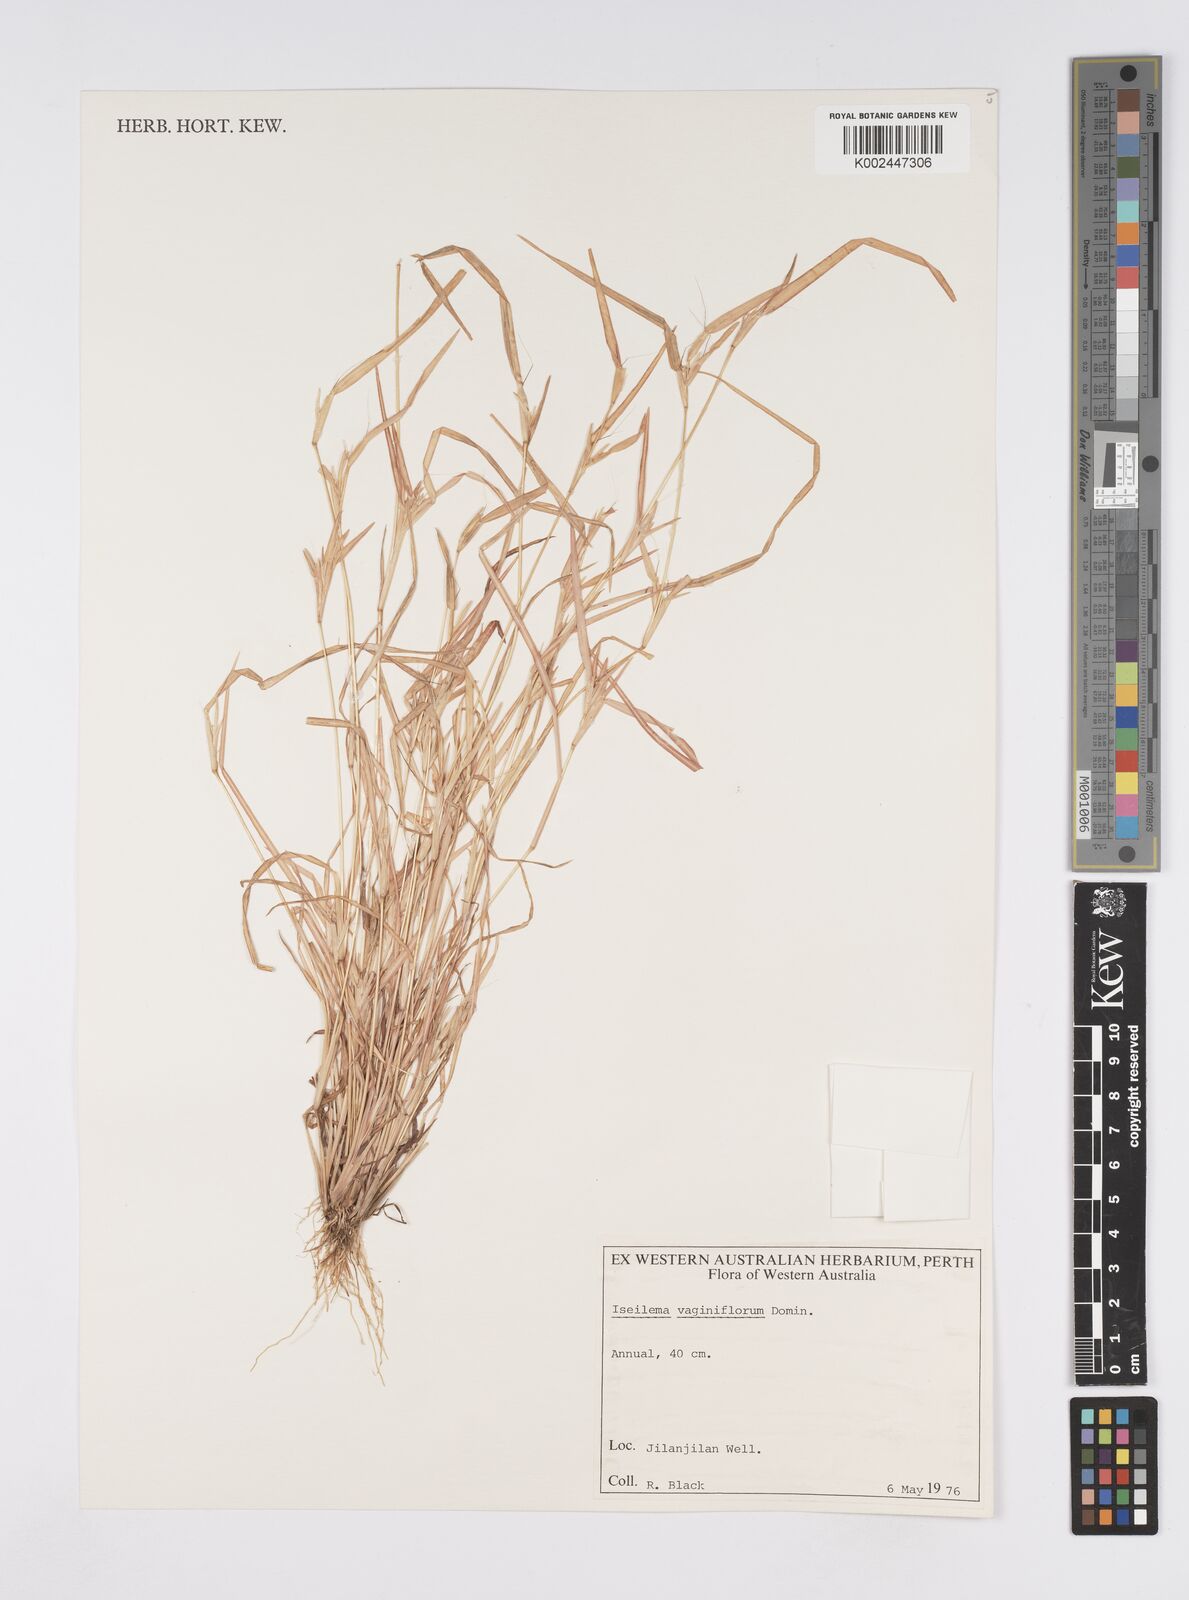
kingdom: Plantae
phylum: Tracheophyta
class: Liliopsida
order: Poales
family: Poaceae
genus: Iseilema
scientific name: Iseilema vaginiflorum
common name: Red flinders grass
